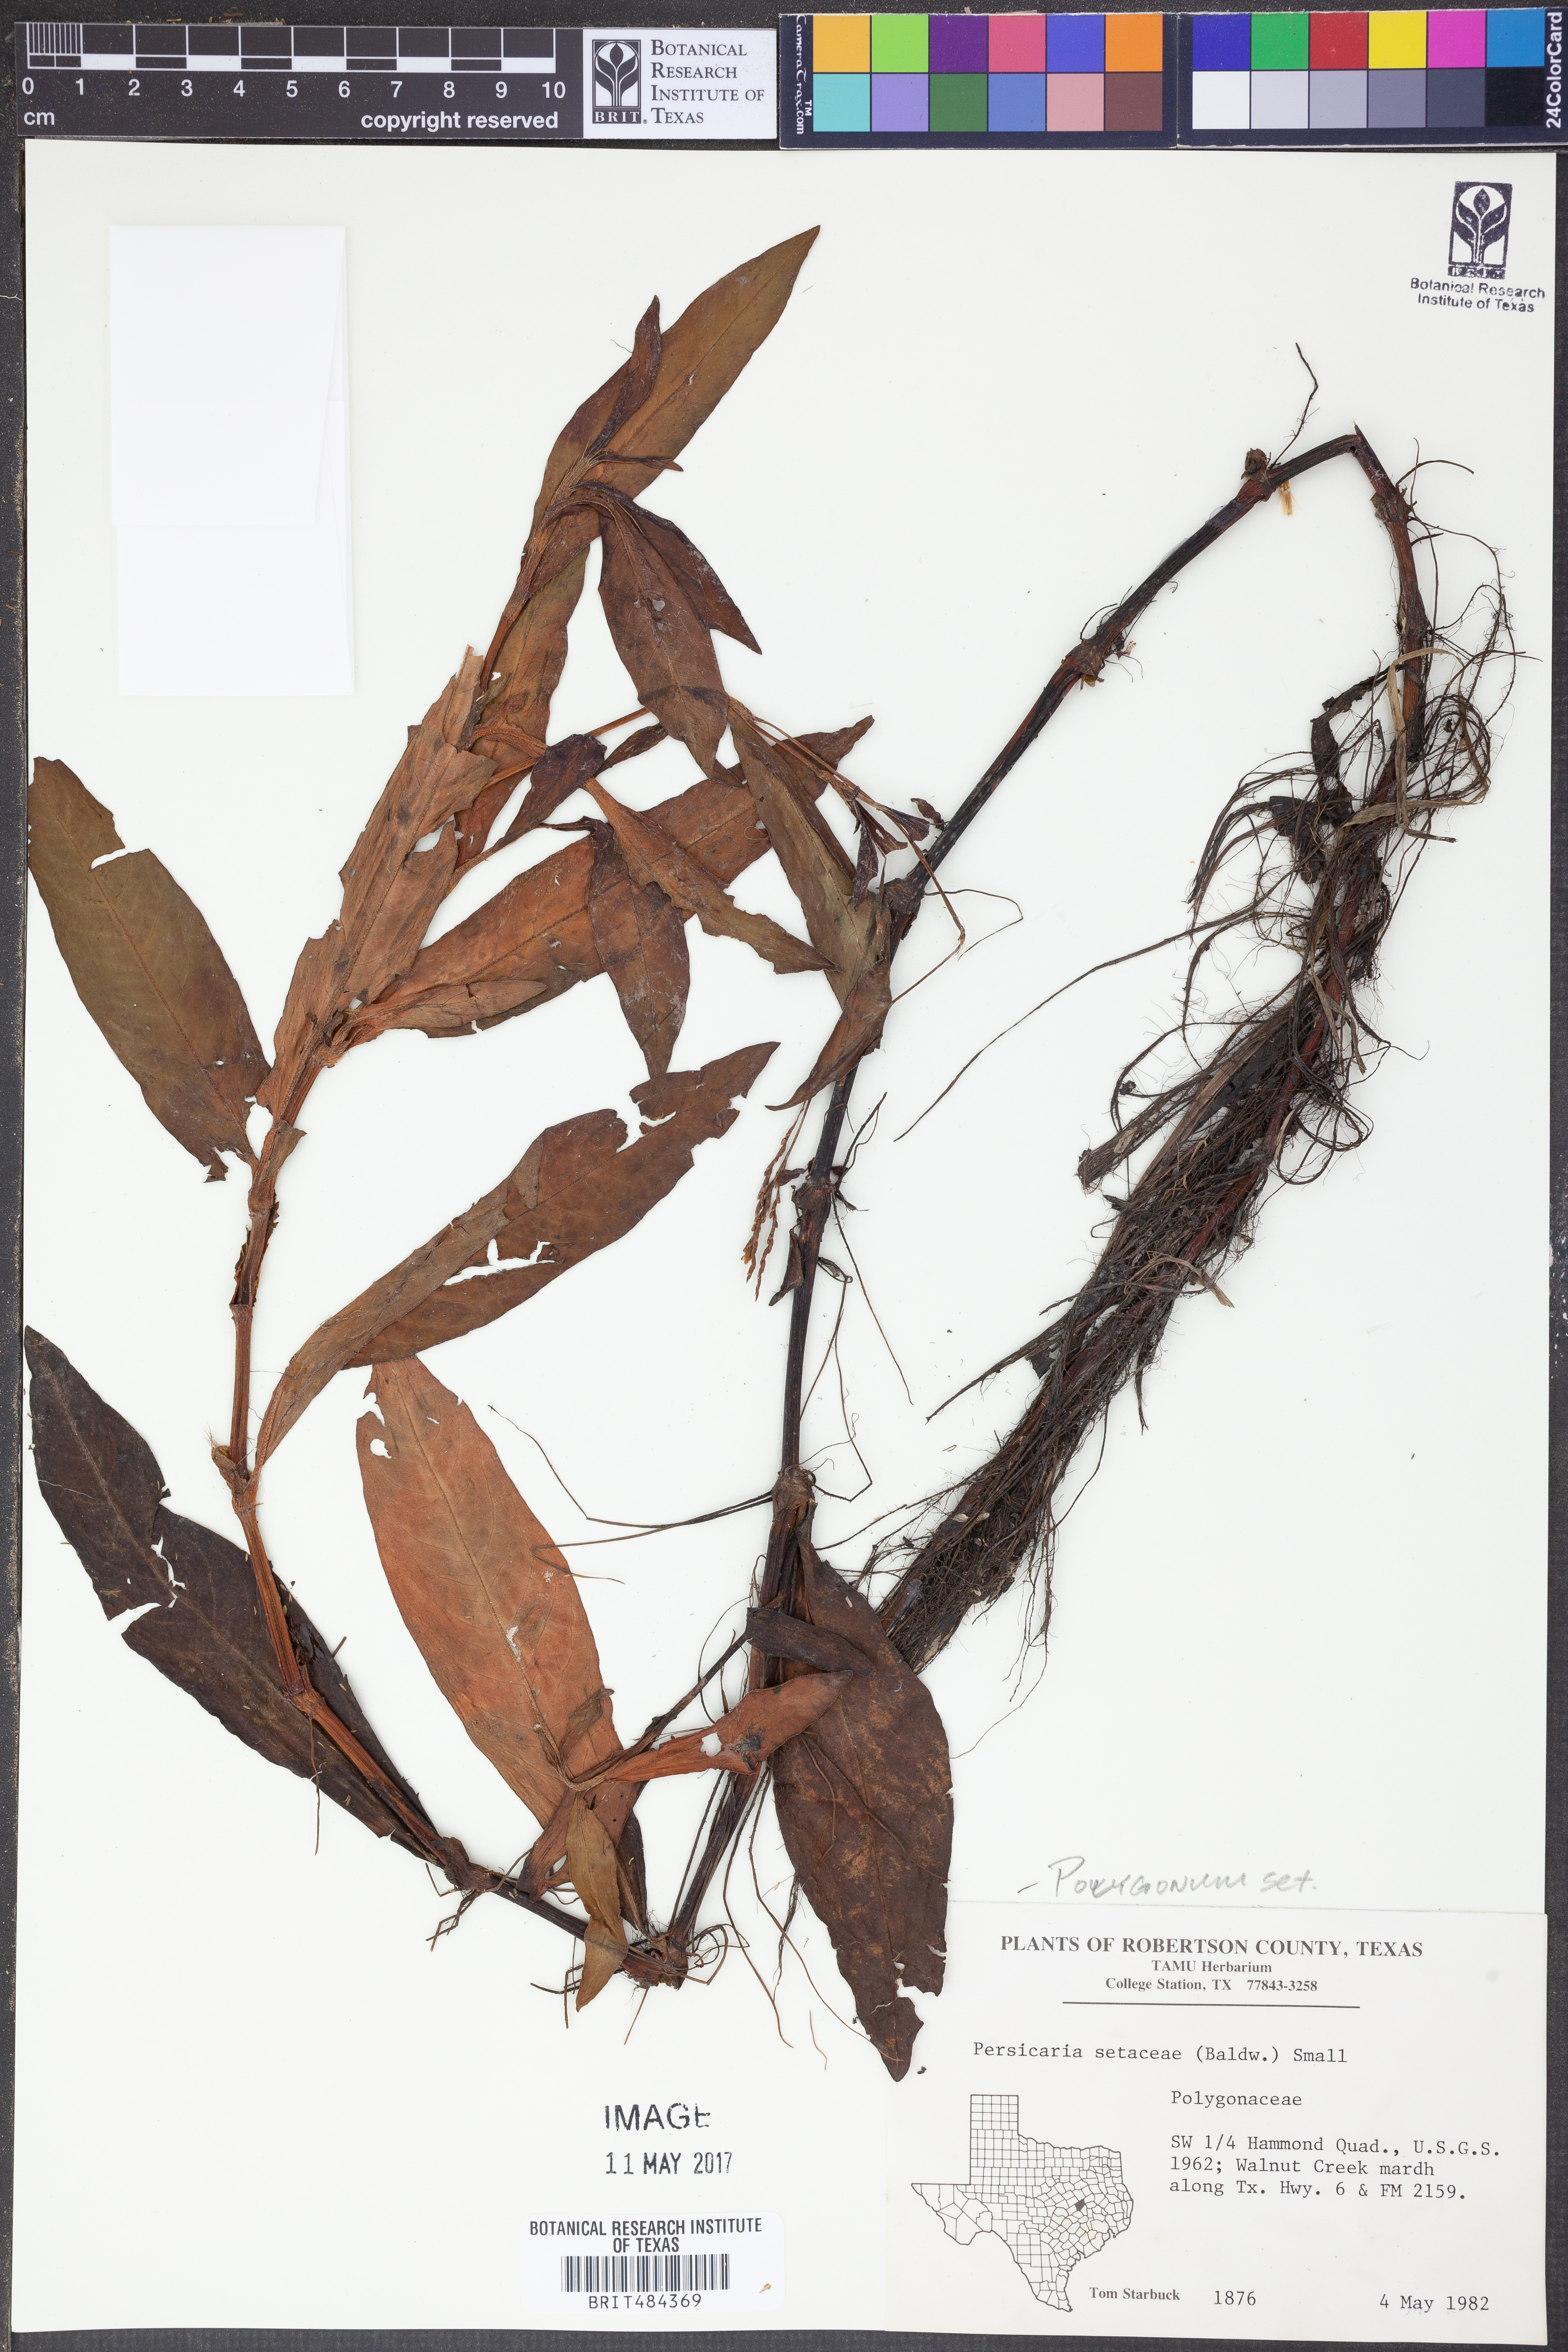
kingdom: Plantae
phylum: Tracheophyta
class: Magnoliopsida
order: Caryophyllales
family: Polygonaceae
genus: Persicaria
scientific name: Persicaria setacea
